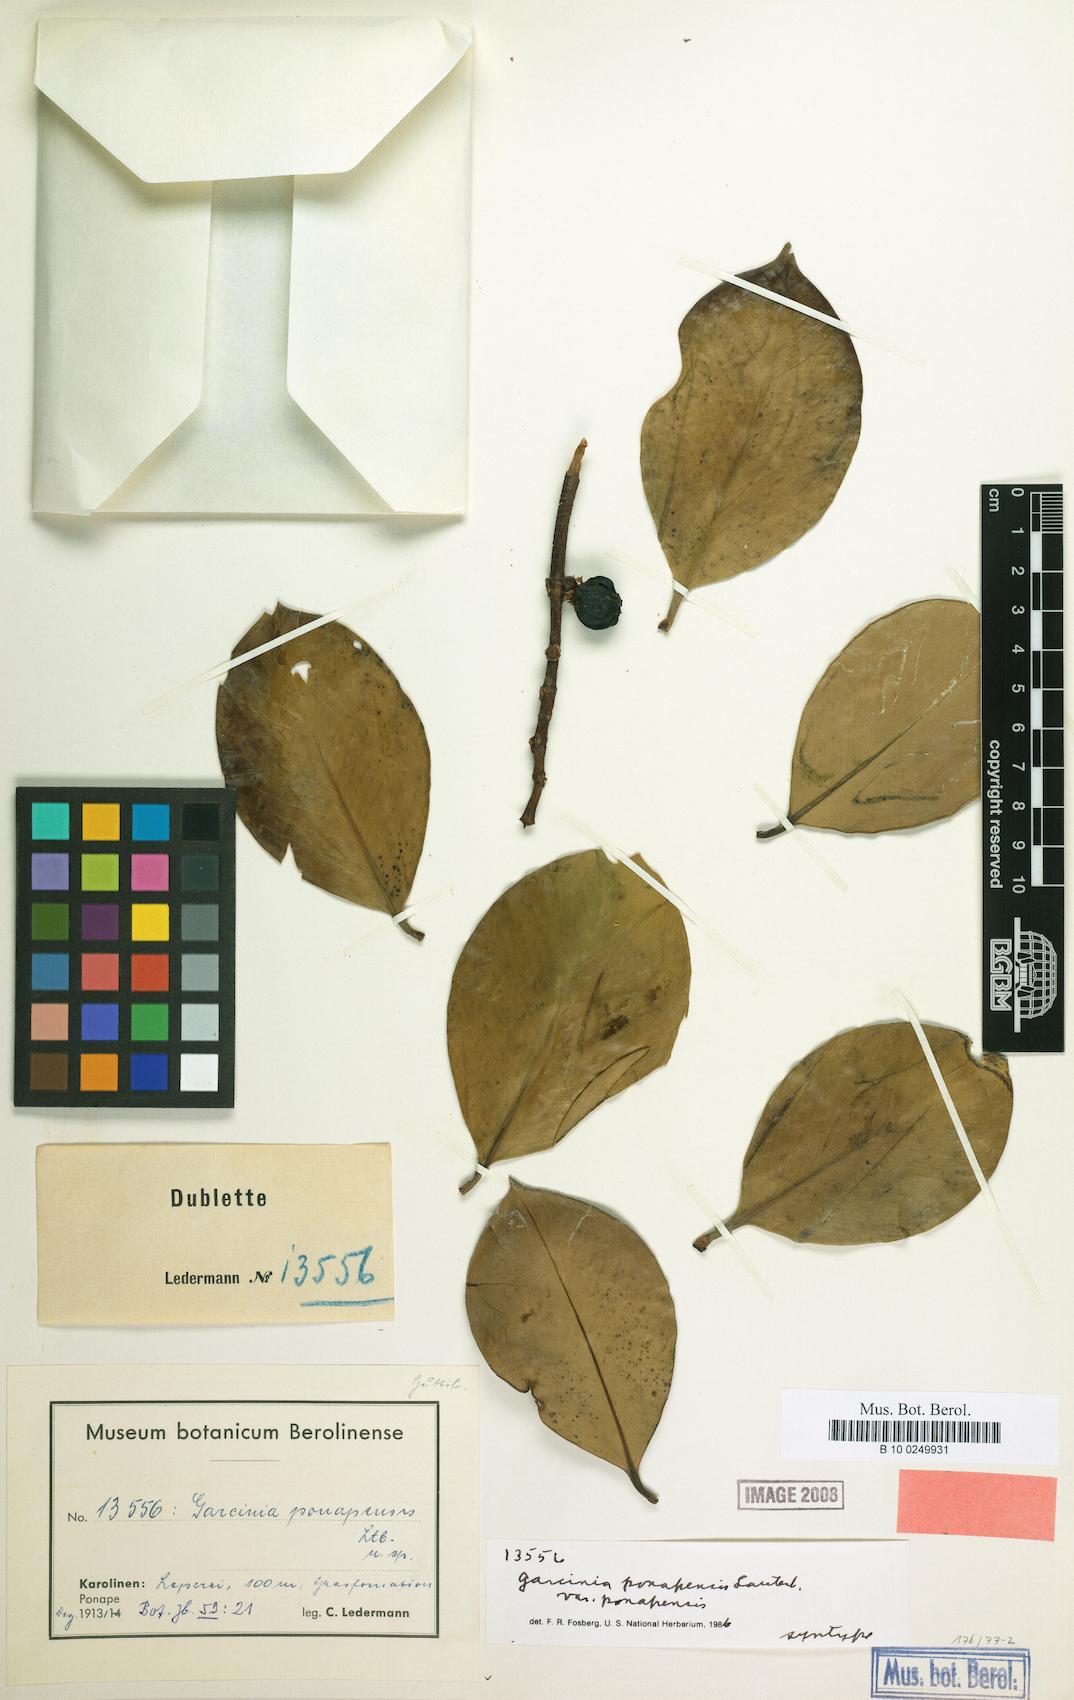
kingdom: Plantae
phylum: Tracheophyta
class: Magnoliopsida
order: Malpighiales
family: Clusiaceae
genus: Garcinia
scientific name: Garcinia ponapensis
